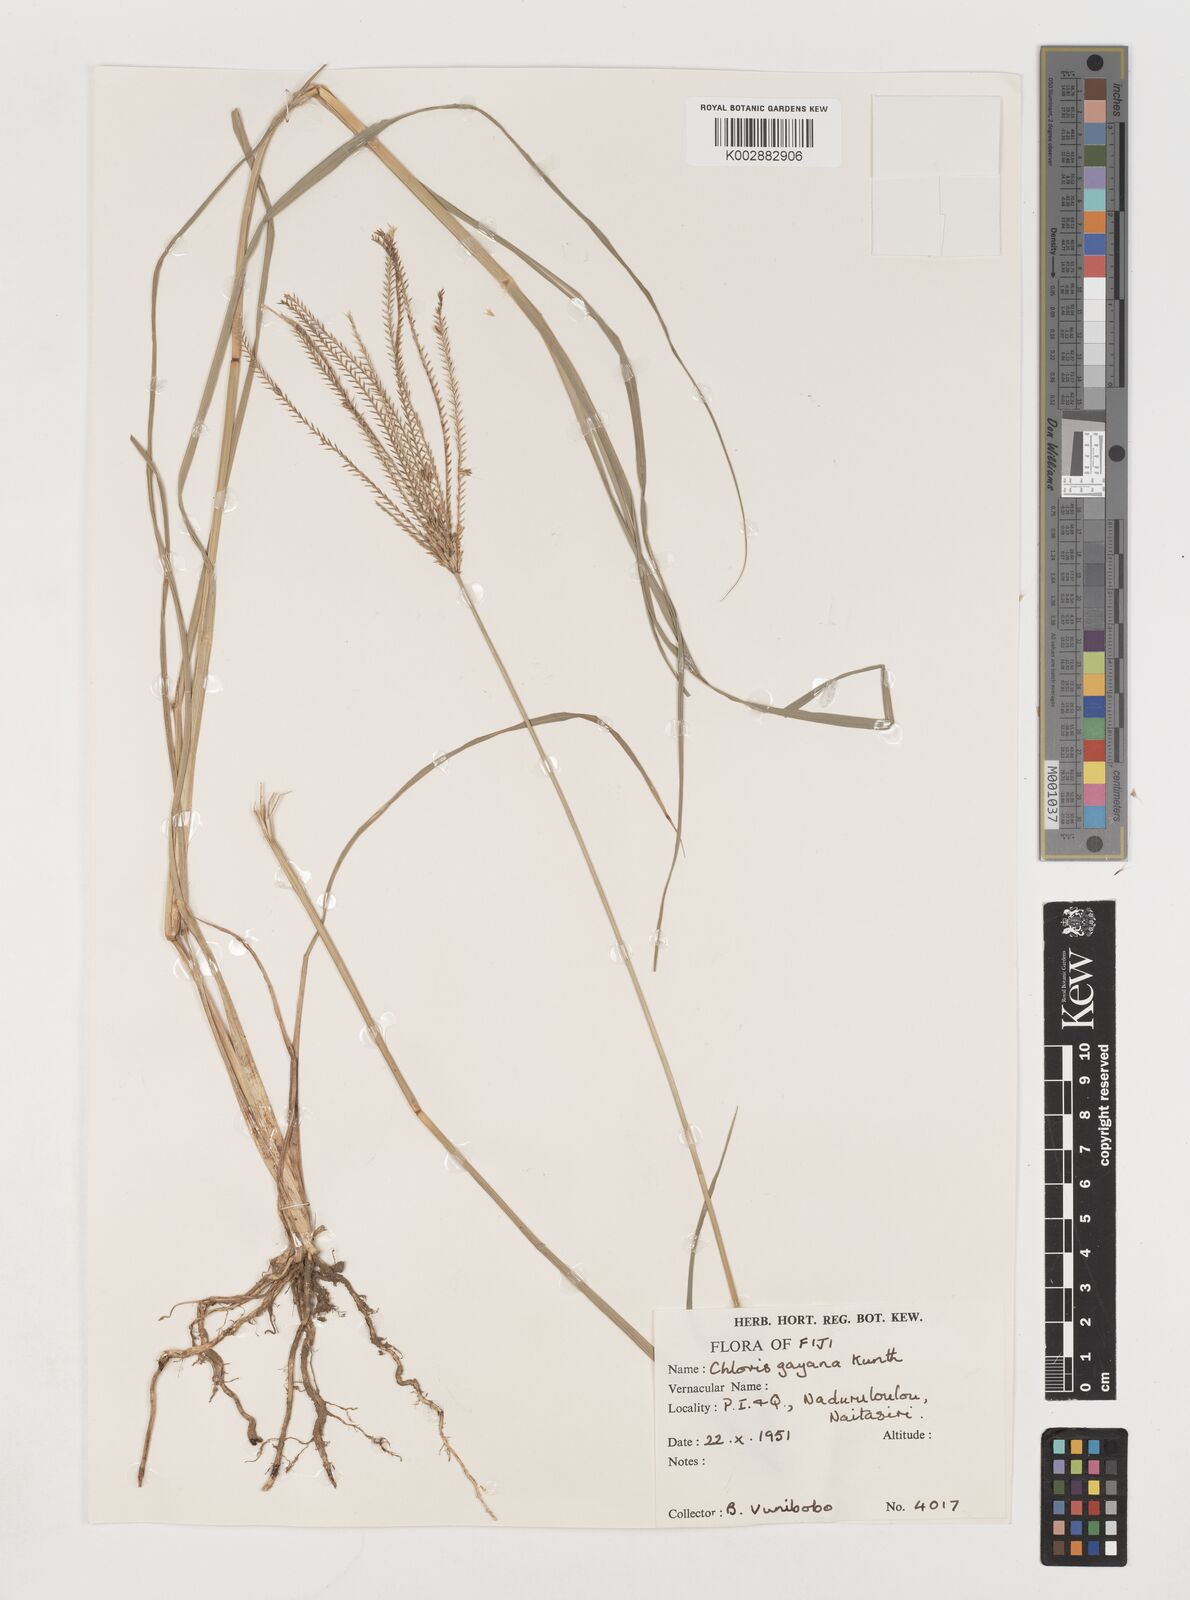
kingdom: Plantae
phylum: Tracheophyta
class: Liliopsida
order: Poales
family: Poaceae
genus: Chloris
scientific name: Chloris gayana
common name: Rhodes grass
